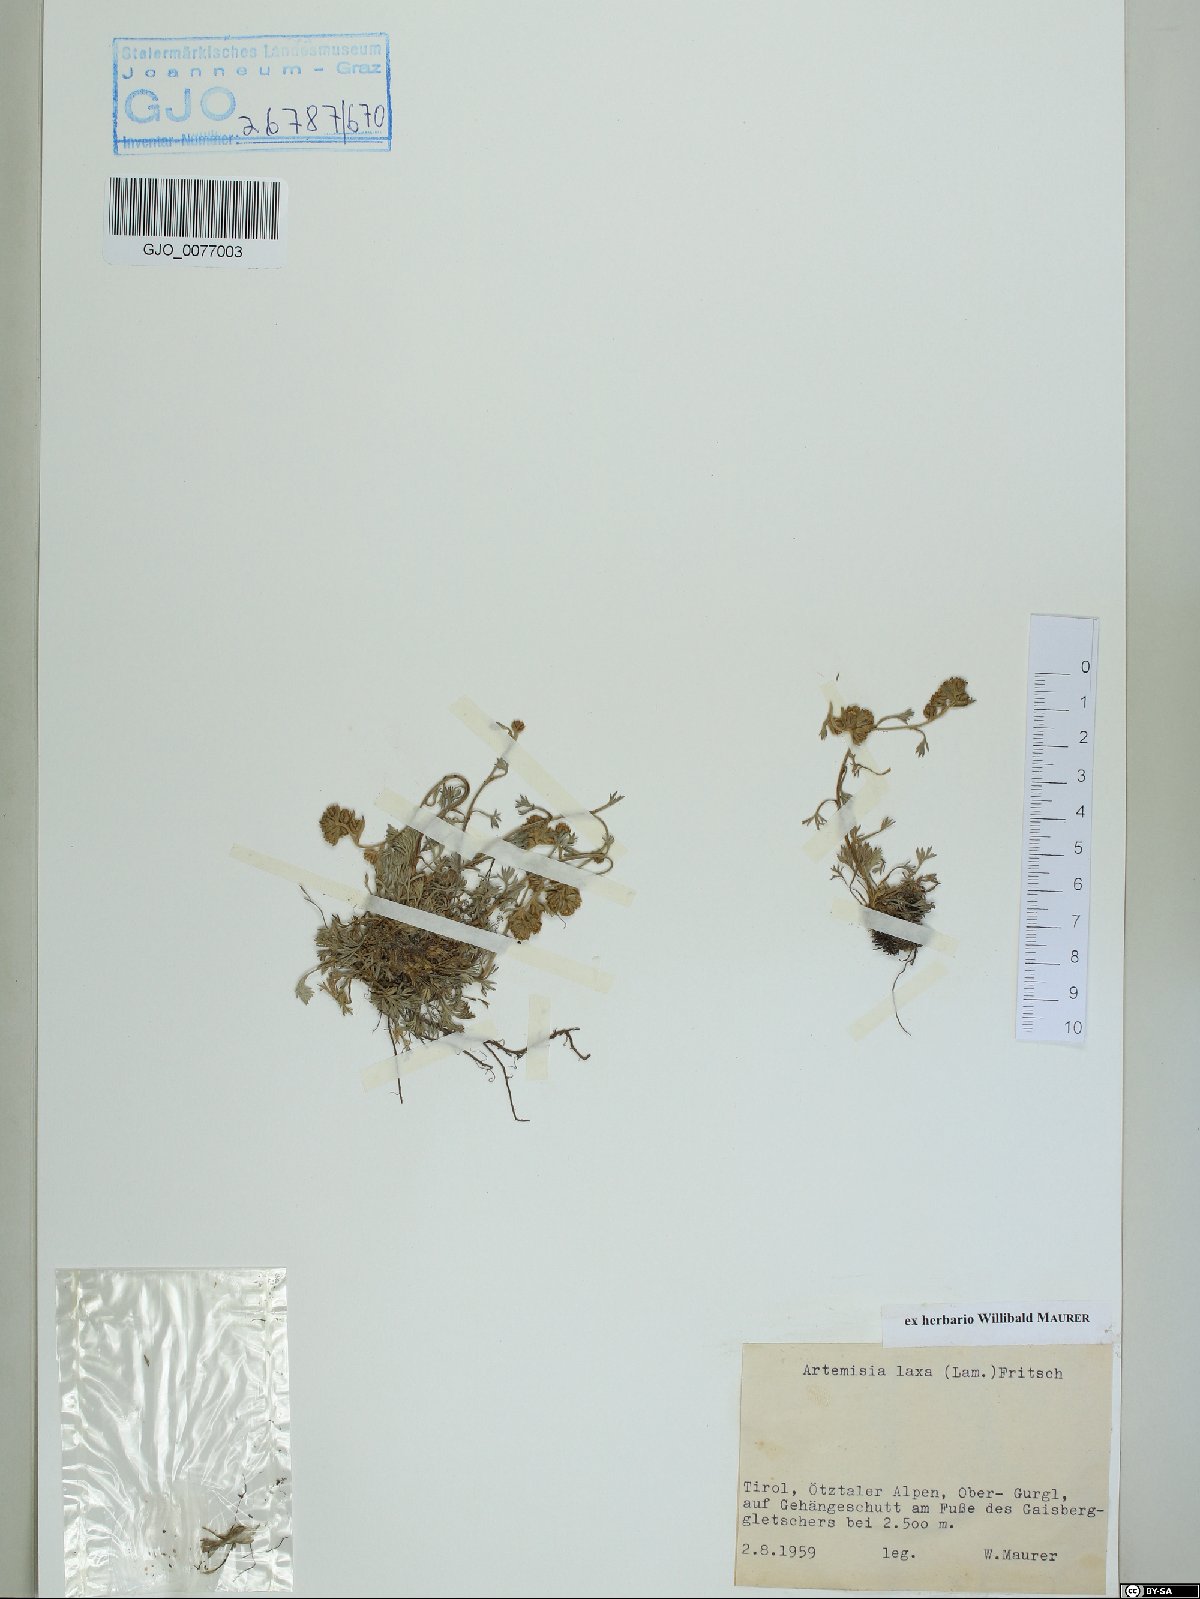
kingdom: Plantae
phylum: Tracheophyta
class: Magnoliopsida
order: Asterales
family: Asteraceae
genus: Artemisia
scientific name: Artemisia mutellina
